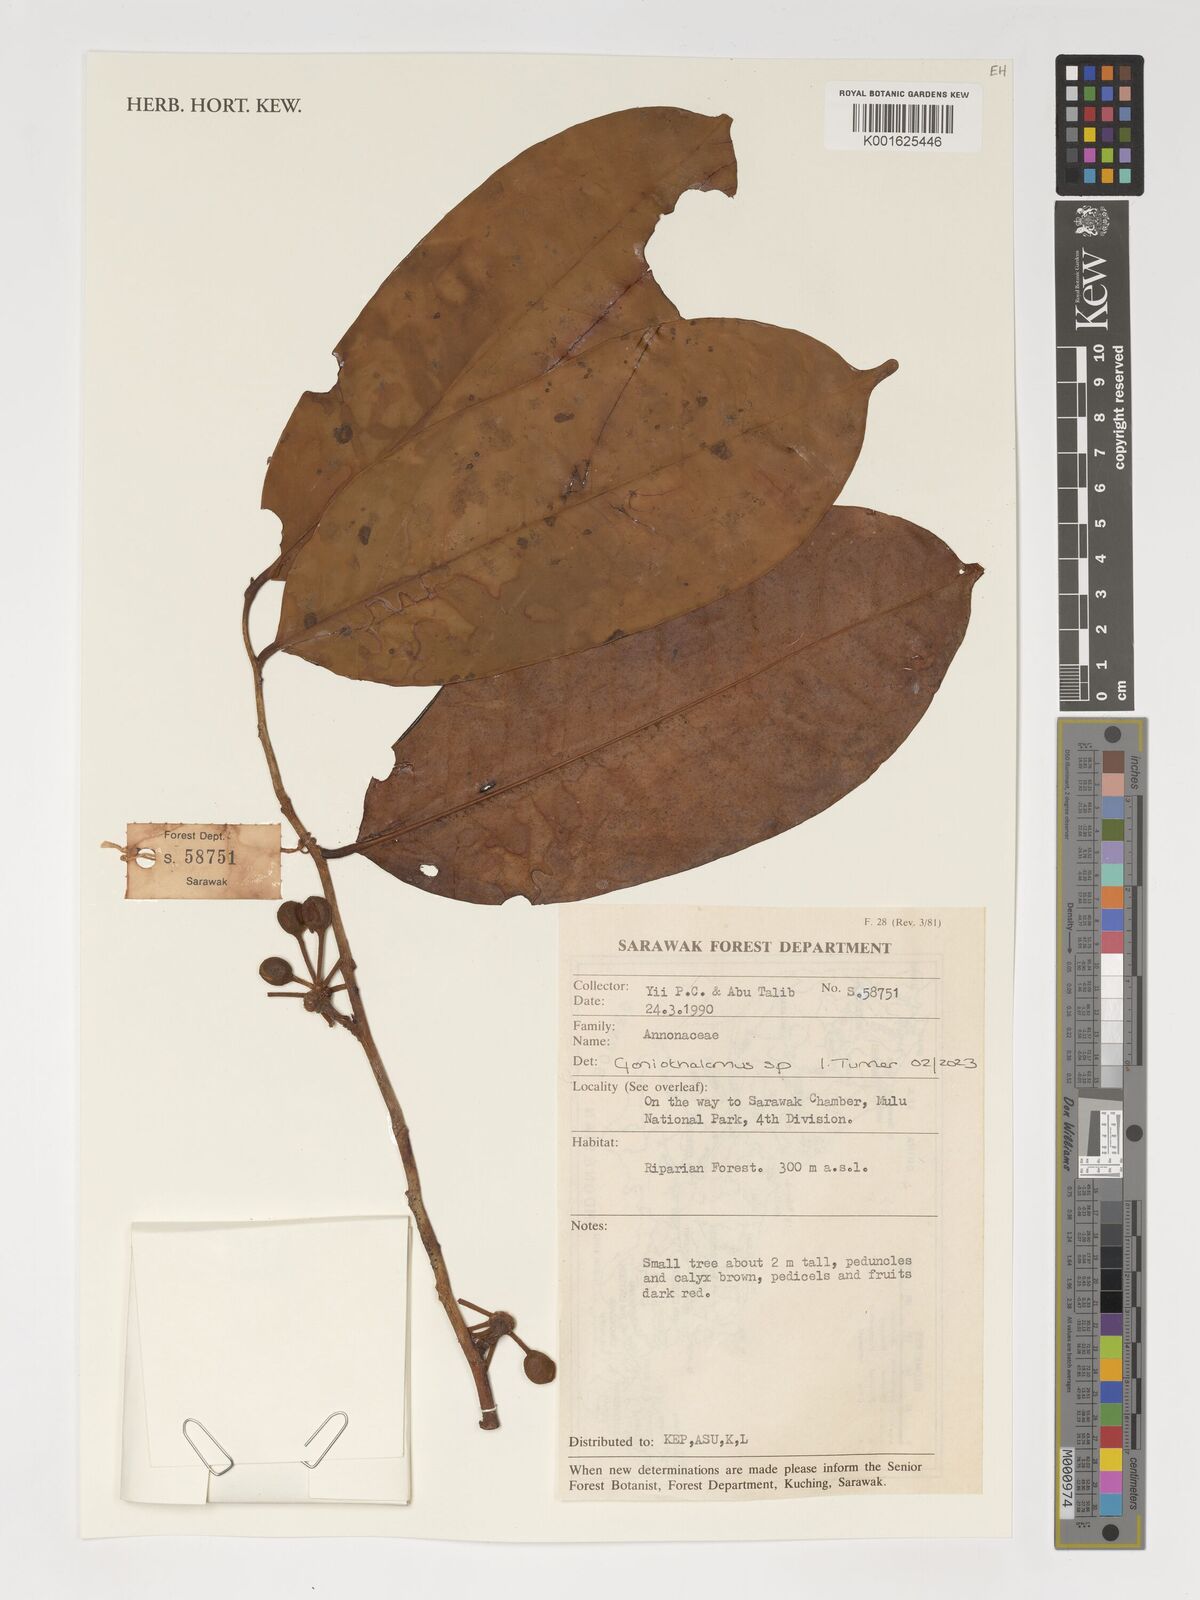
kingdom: Plantae
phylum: Tracheophyta
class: Magnoliopsida
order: Magnoliales
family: Annonaceae
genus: Goniothalamus
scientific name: Goniothalamus
